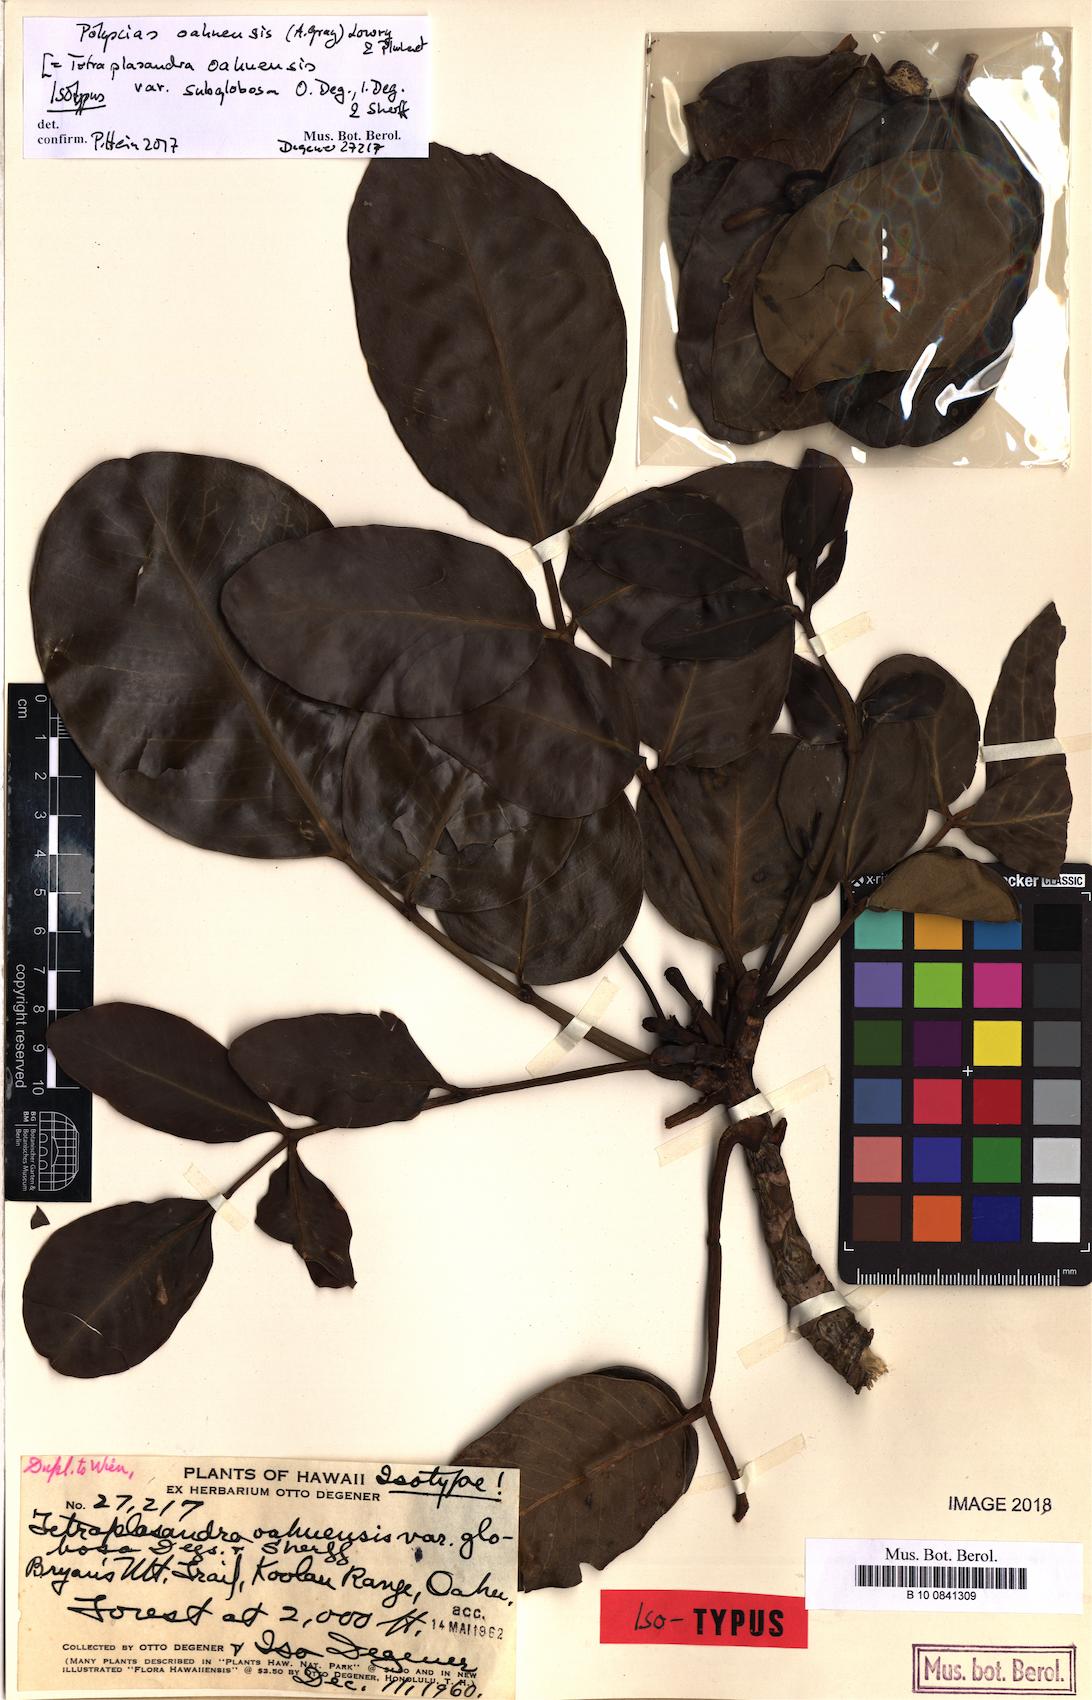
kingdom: Plantae
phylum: Tracheophyta
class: Magnoliopsida
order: Apiales
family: Araliaceae
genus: Polyscias
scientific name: Polyscias oahuensis
